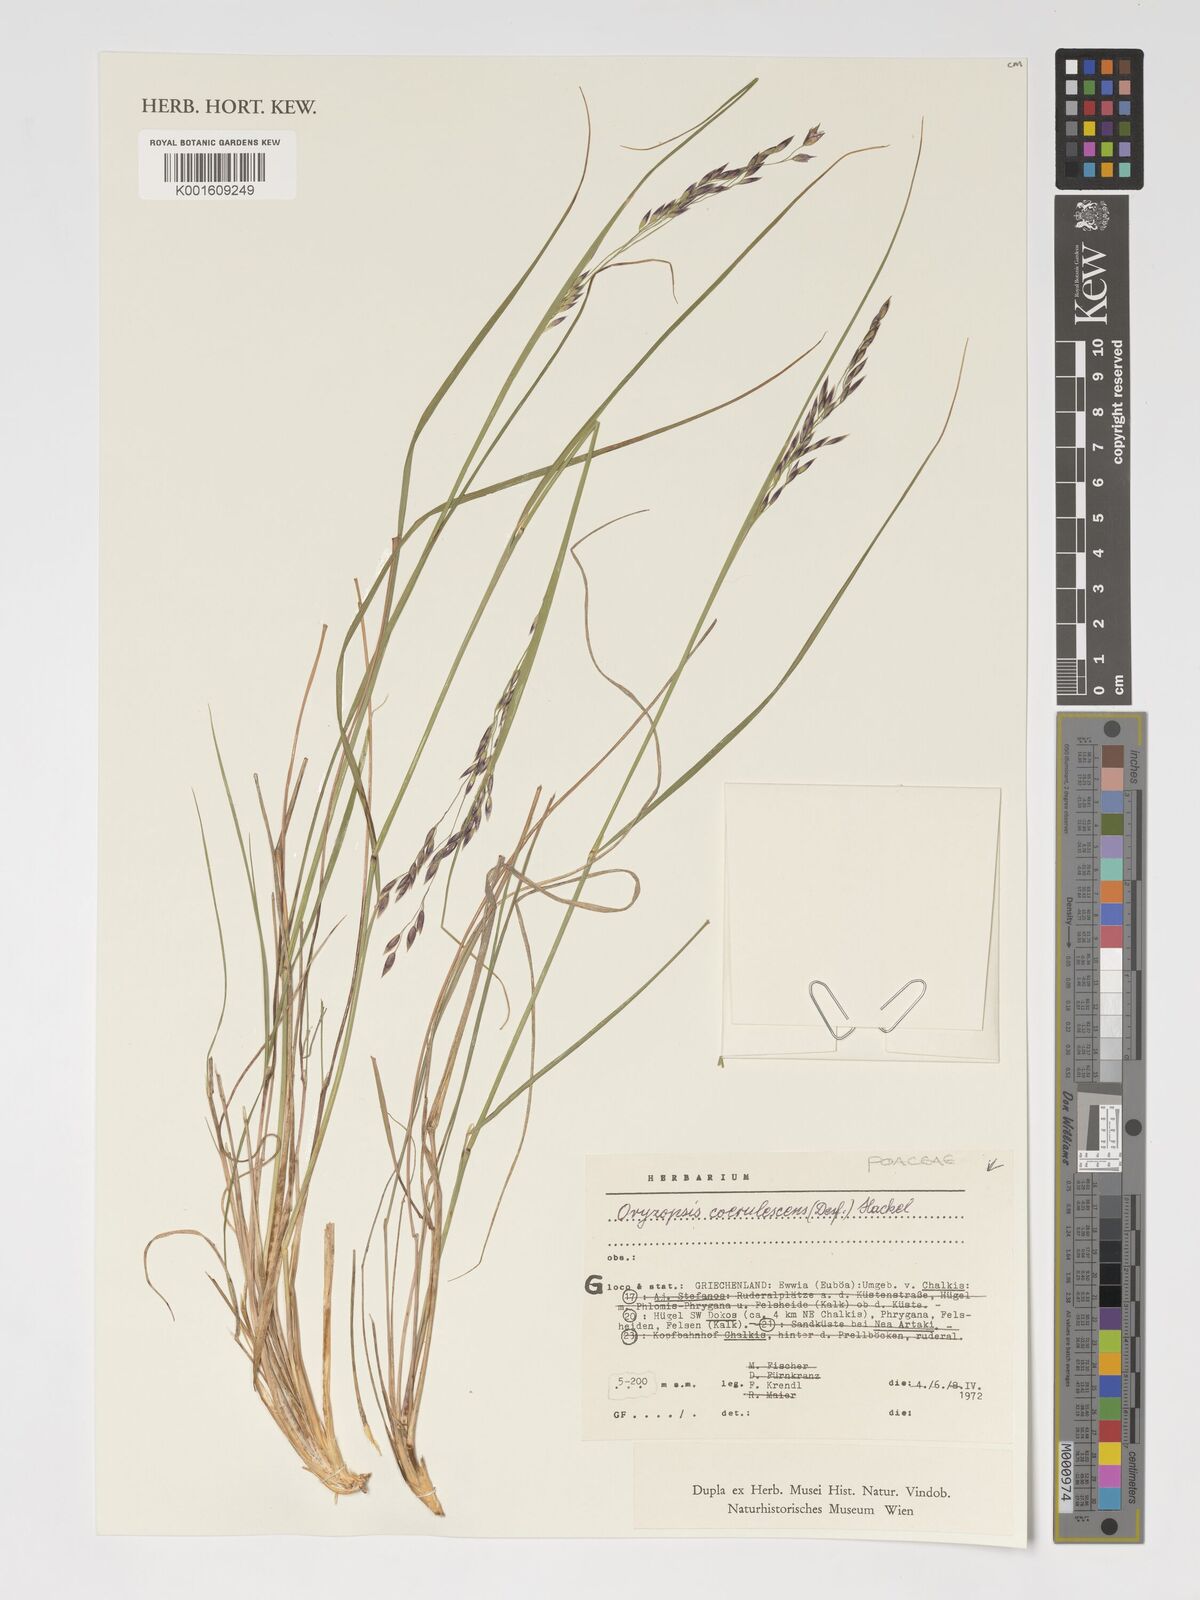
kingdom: Plantae
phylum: Tracheophyta
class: Liliopsida
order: Poales
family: Poaceae
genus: Piptatherum
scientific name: Piptatherum coerulescens
